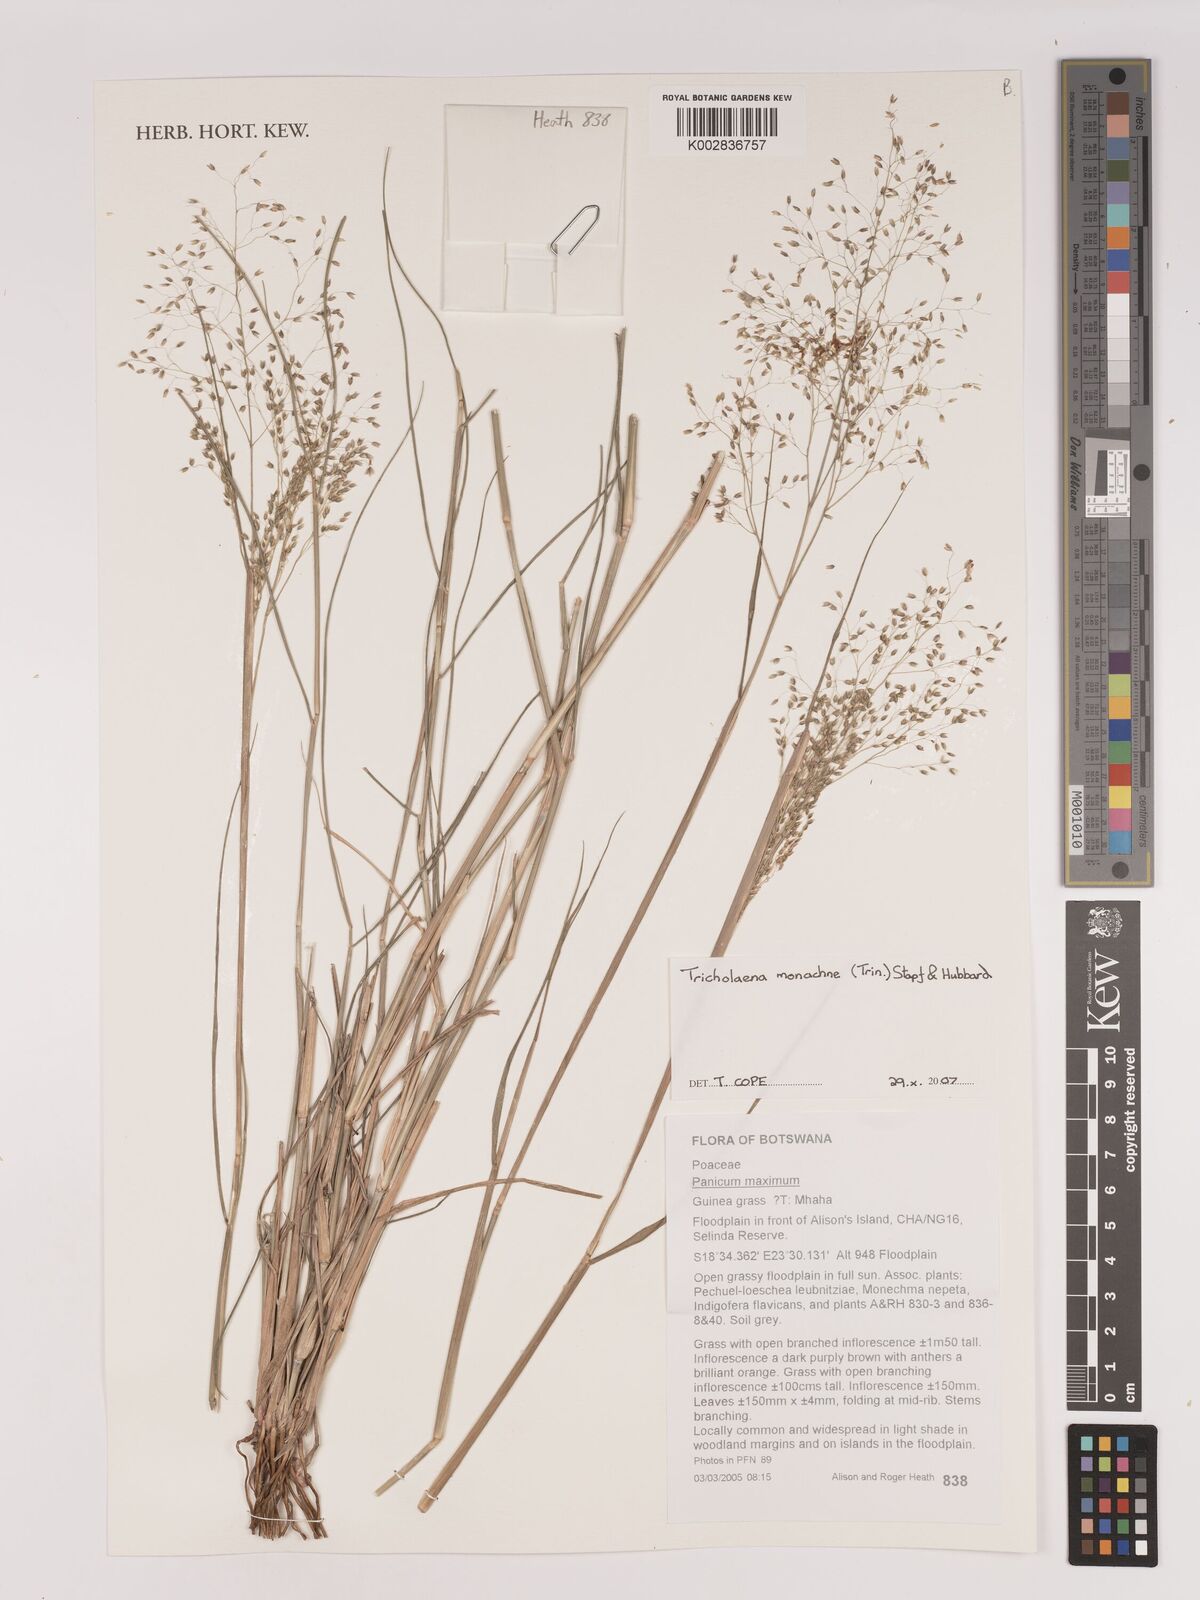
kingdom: Plantae
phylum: Tracheophyta
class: Liliopsida
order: Poales
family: Poaceae
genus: Tricholaena
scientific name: Tricholaena monachne
